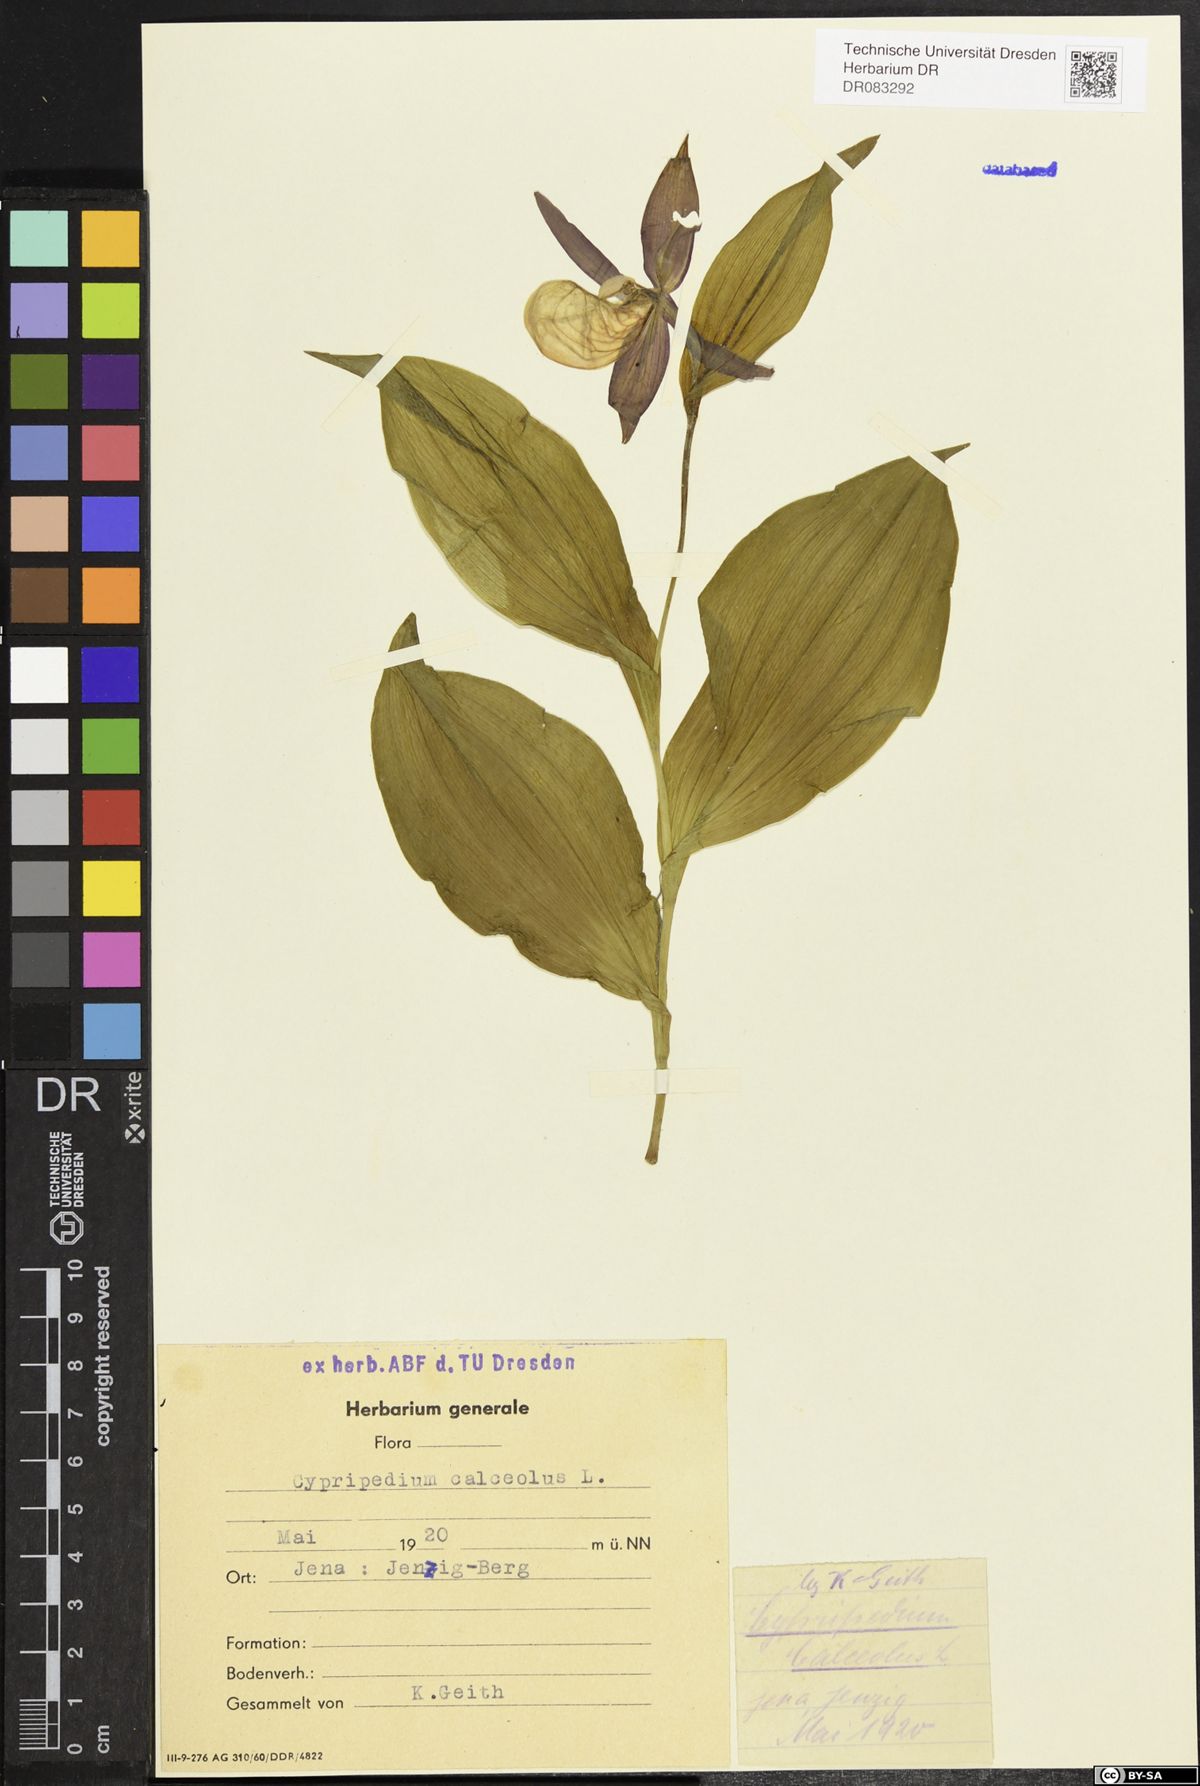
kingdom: Plantae
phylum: Tracheophyta
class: Liliopsida
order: Asparagales
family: Orchidaceae
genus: Cypripedium
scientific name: Cypripedium calceolus
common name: Lady's-slipper
